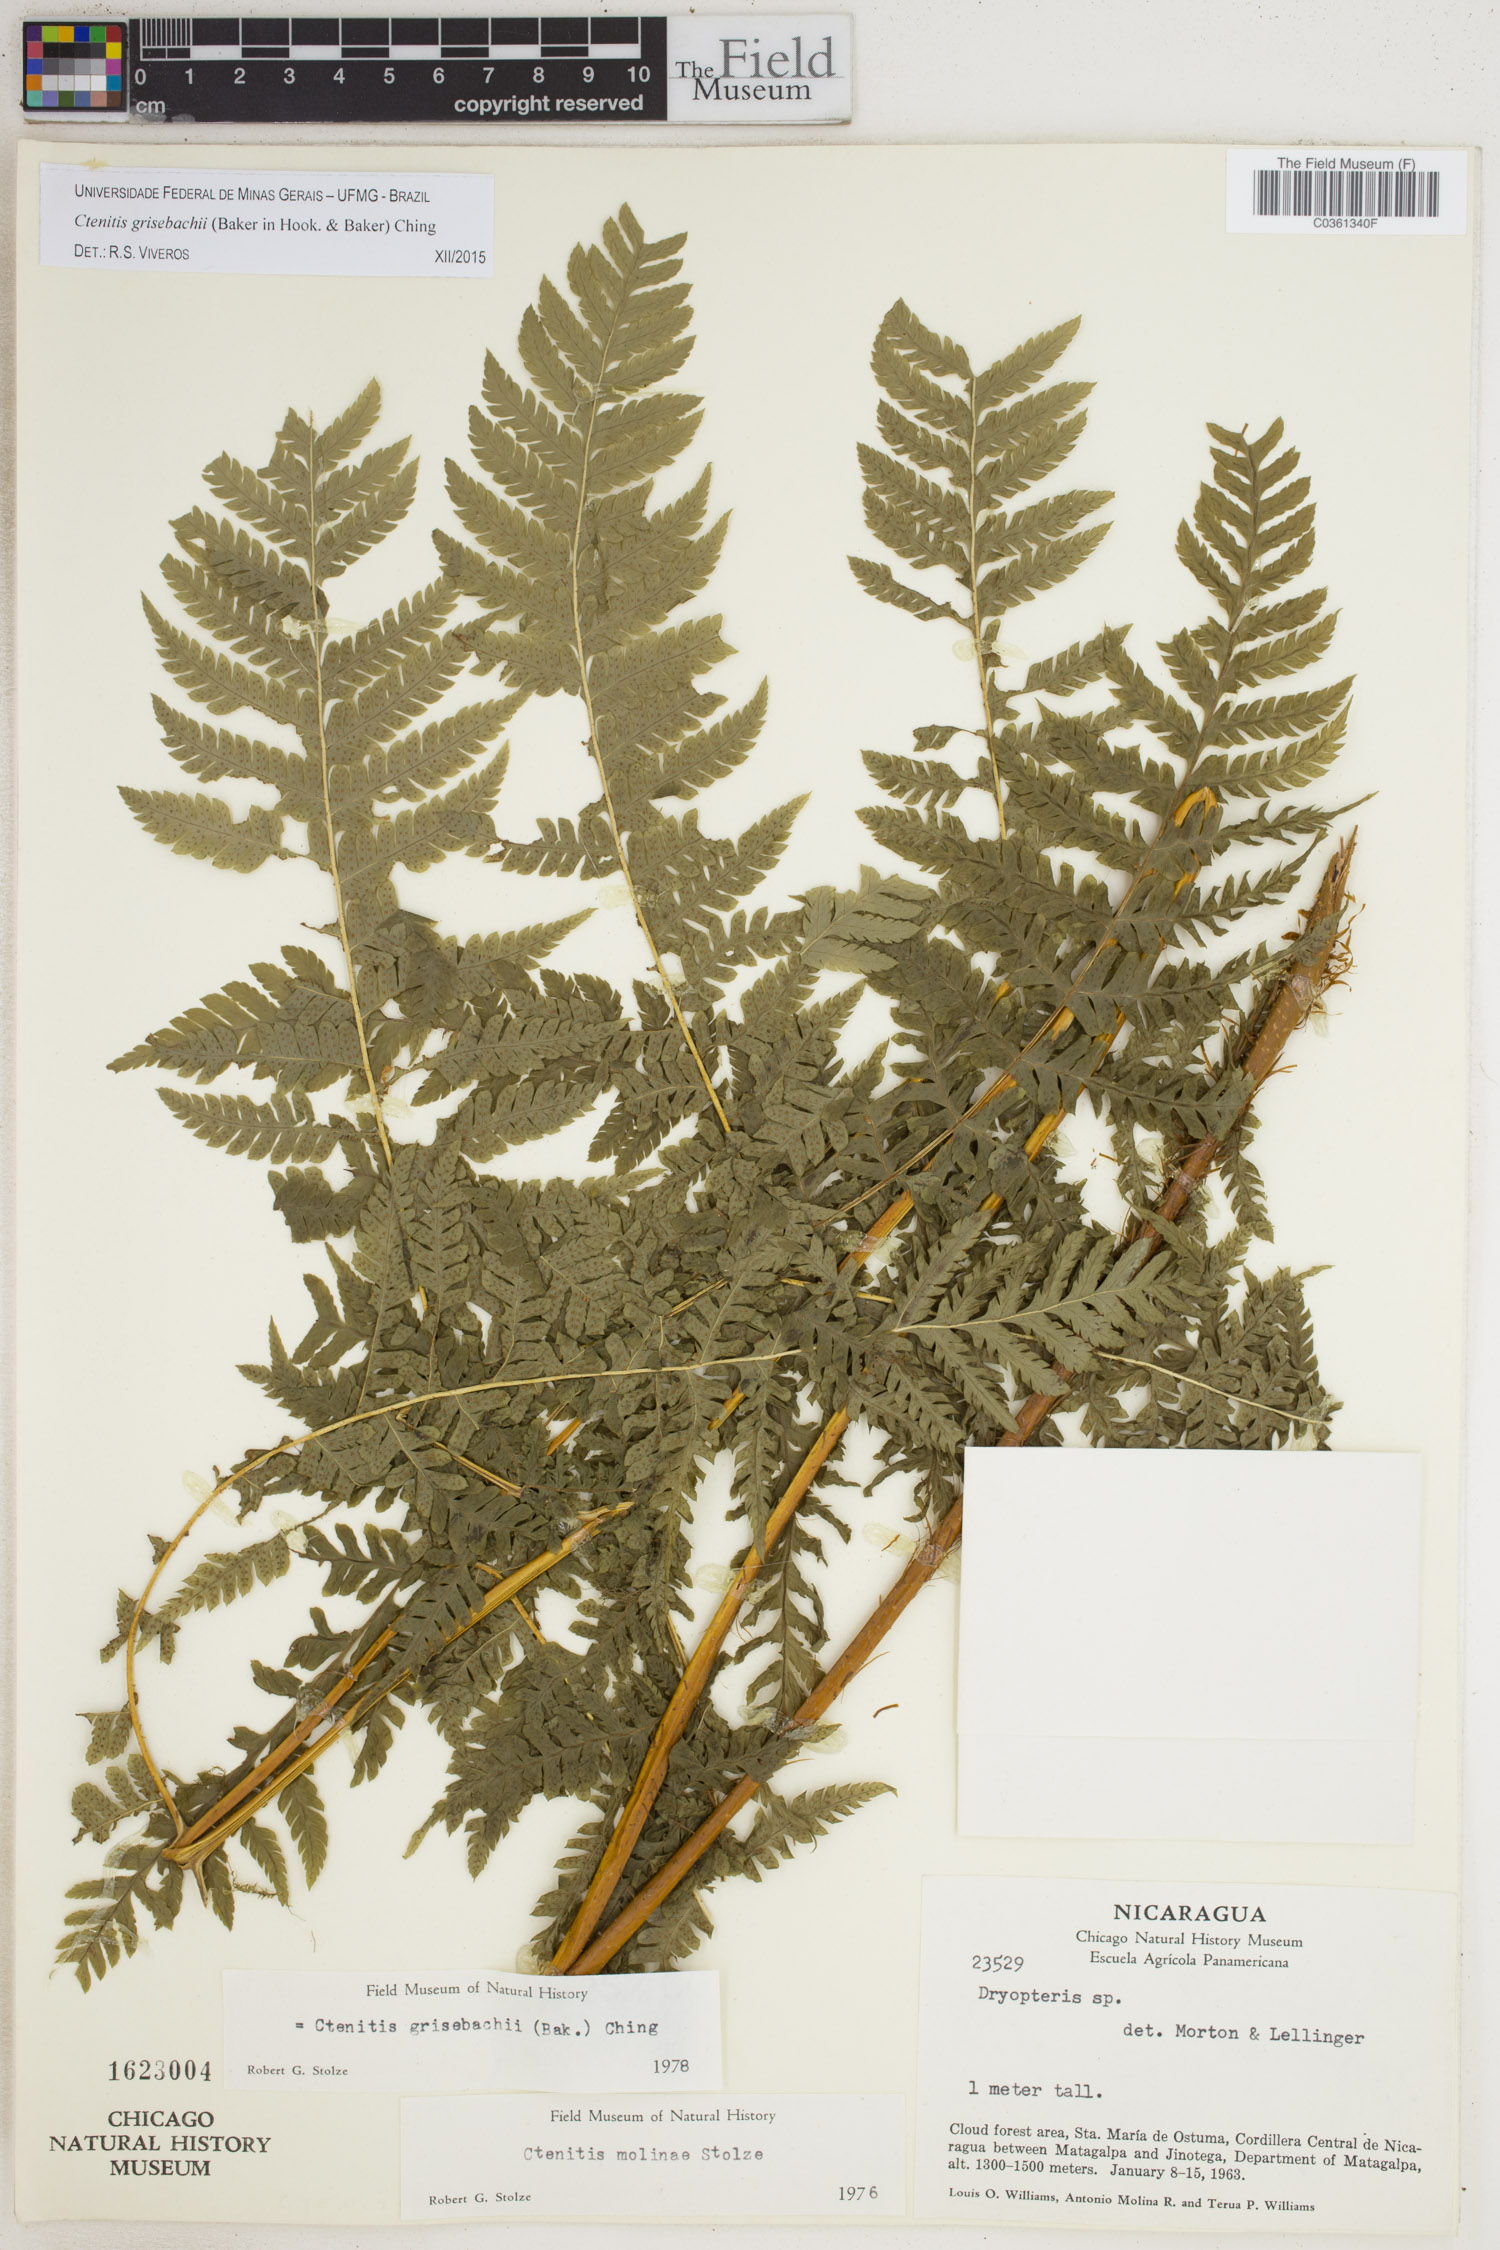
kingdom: Plantae
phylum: Tracheophyta
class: Polypodiopsida
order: Polypodiales
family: Dryopteridaceae
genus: Ctenitis
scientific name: Ctenitis grisebachii
